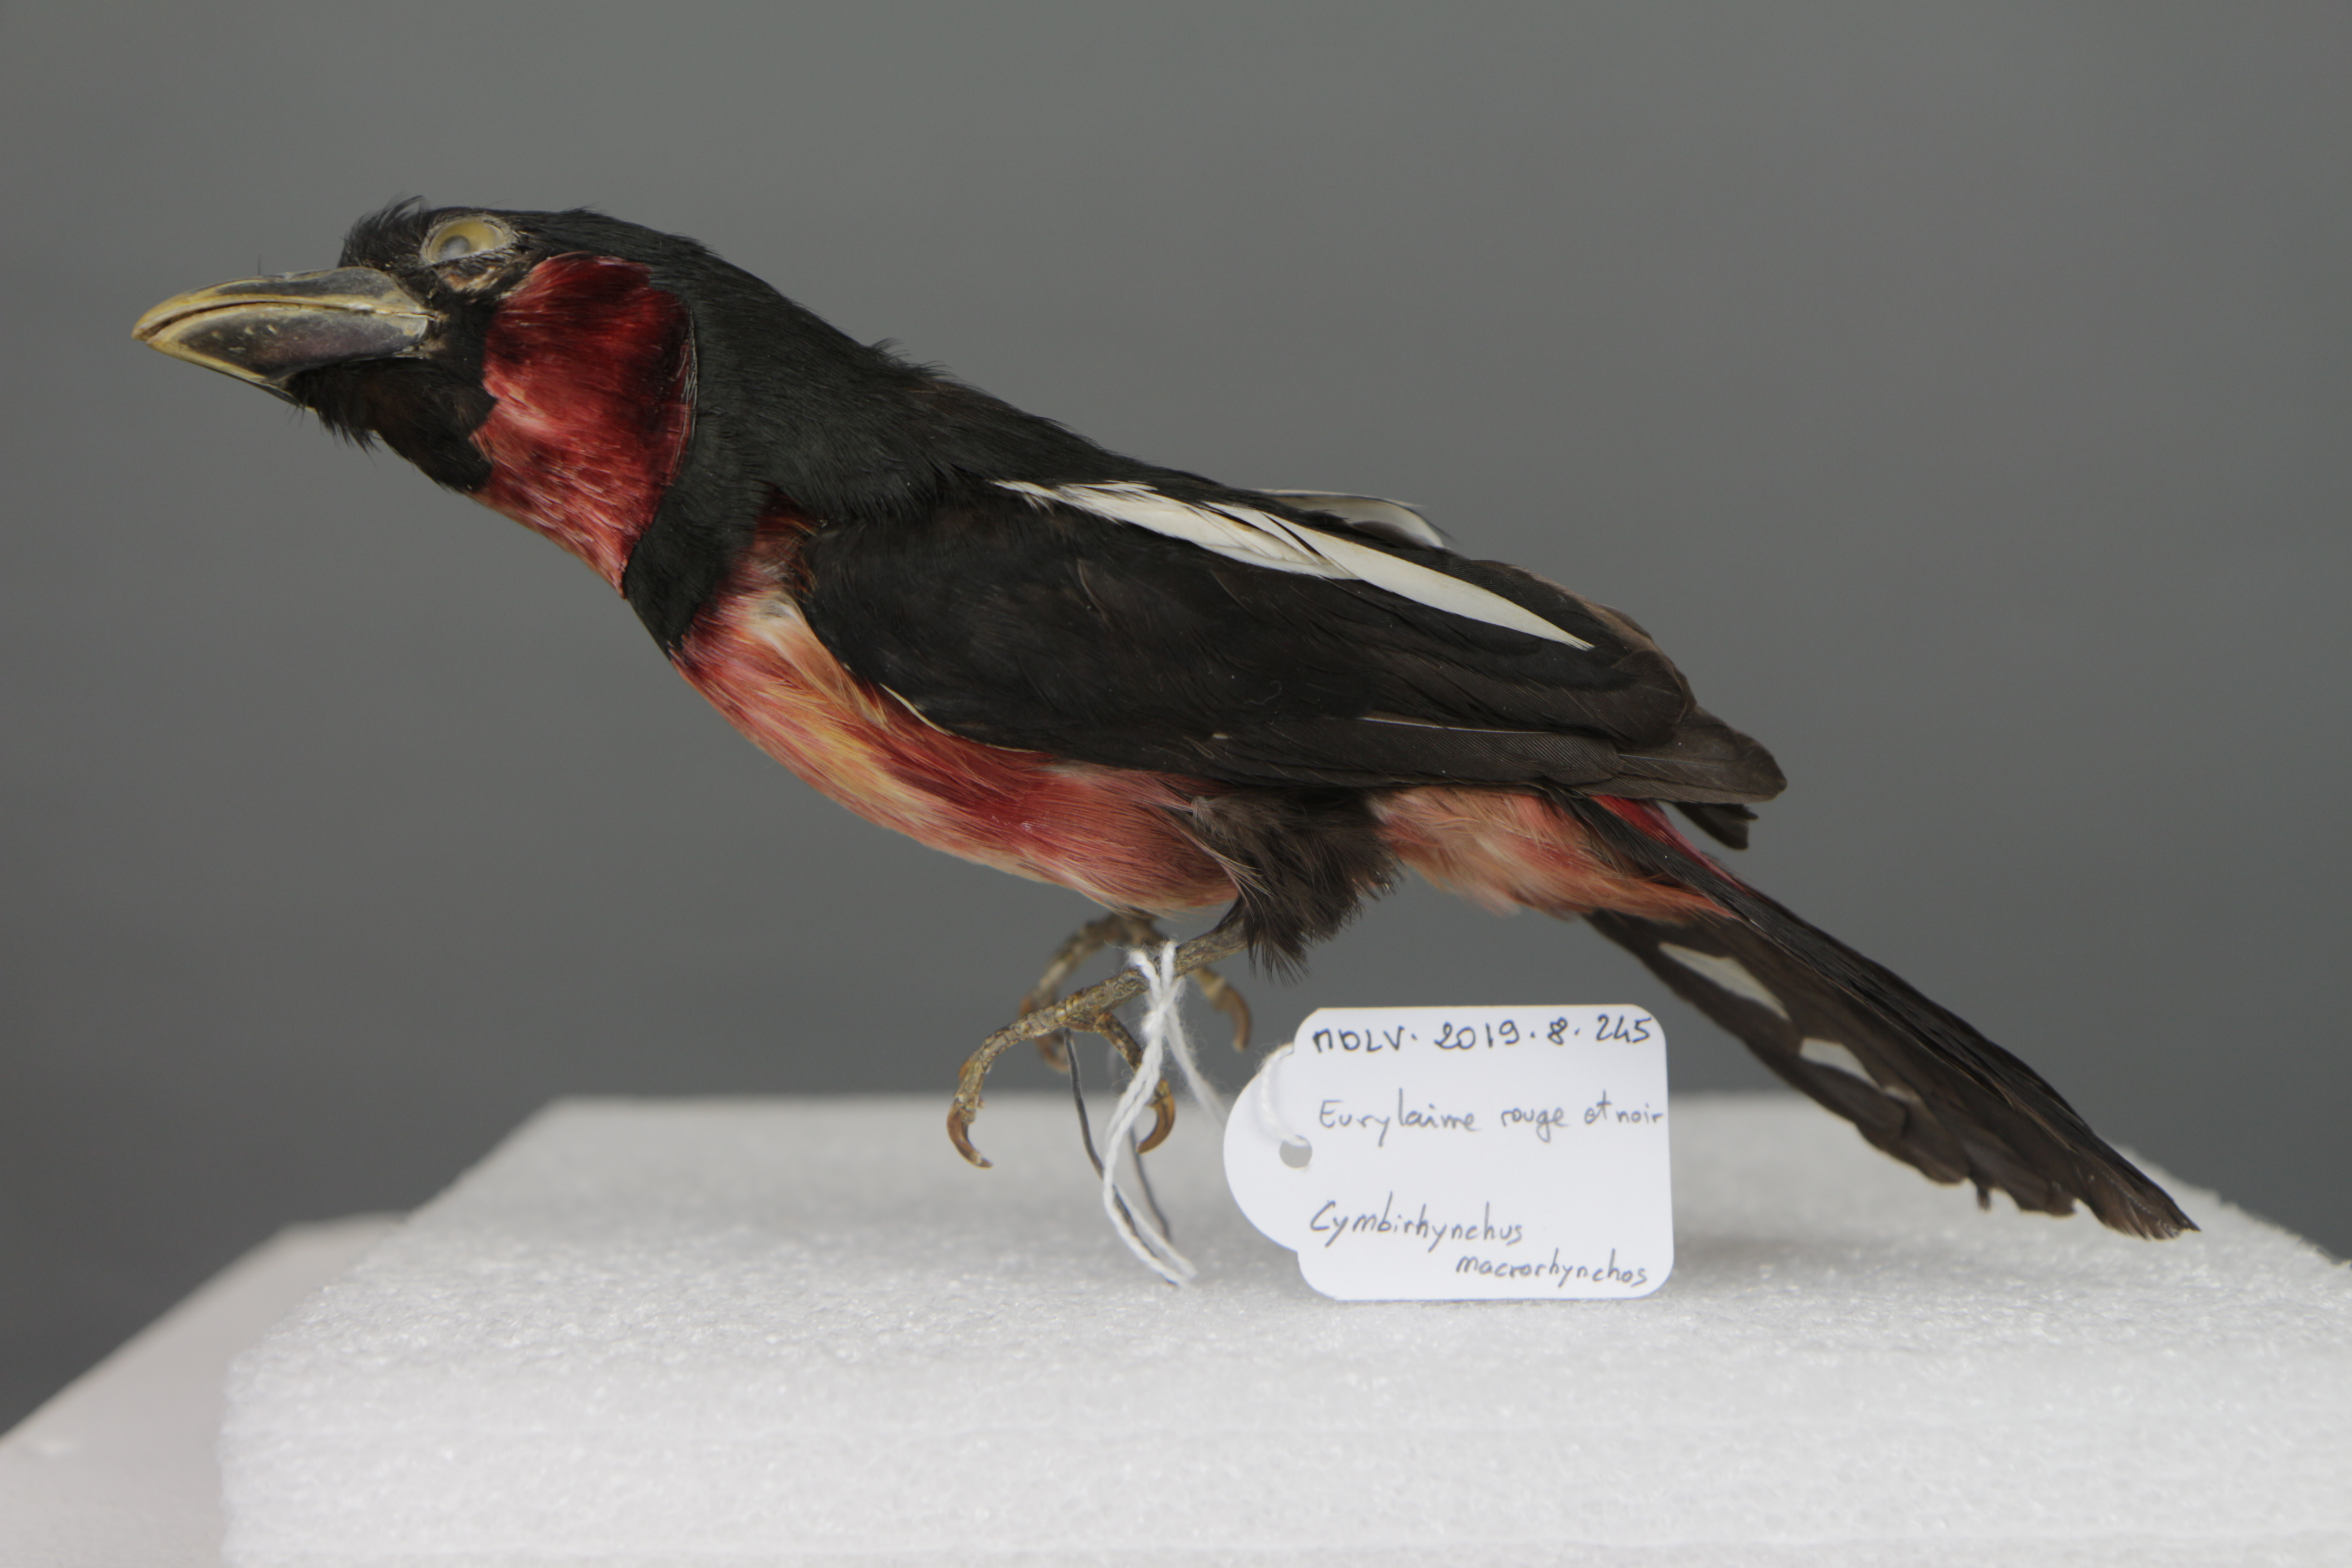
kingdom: Animalia
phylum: Chordata
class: Aves
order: Passeriformes
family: Eurylaimidae
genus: Cymbirhynchus
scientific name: Cymbirhynchus macrorhynchos
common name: Black-and-red broadbill
